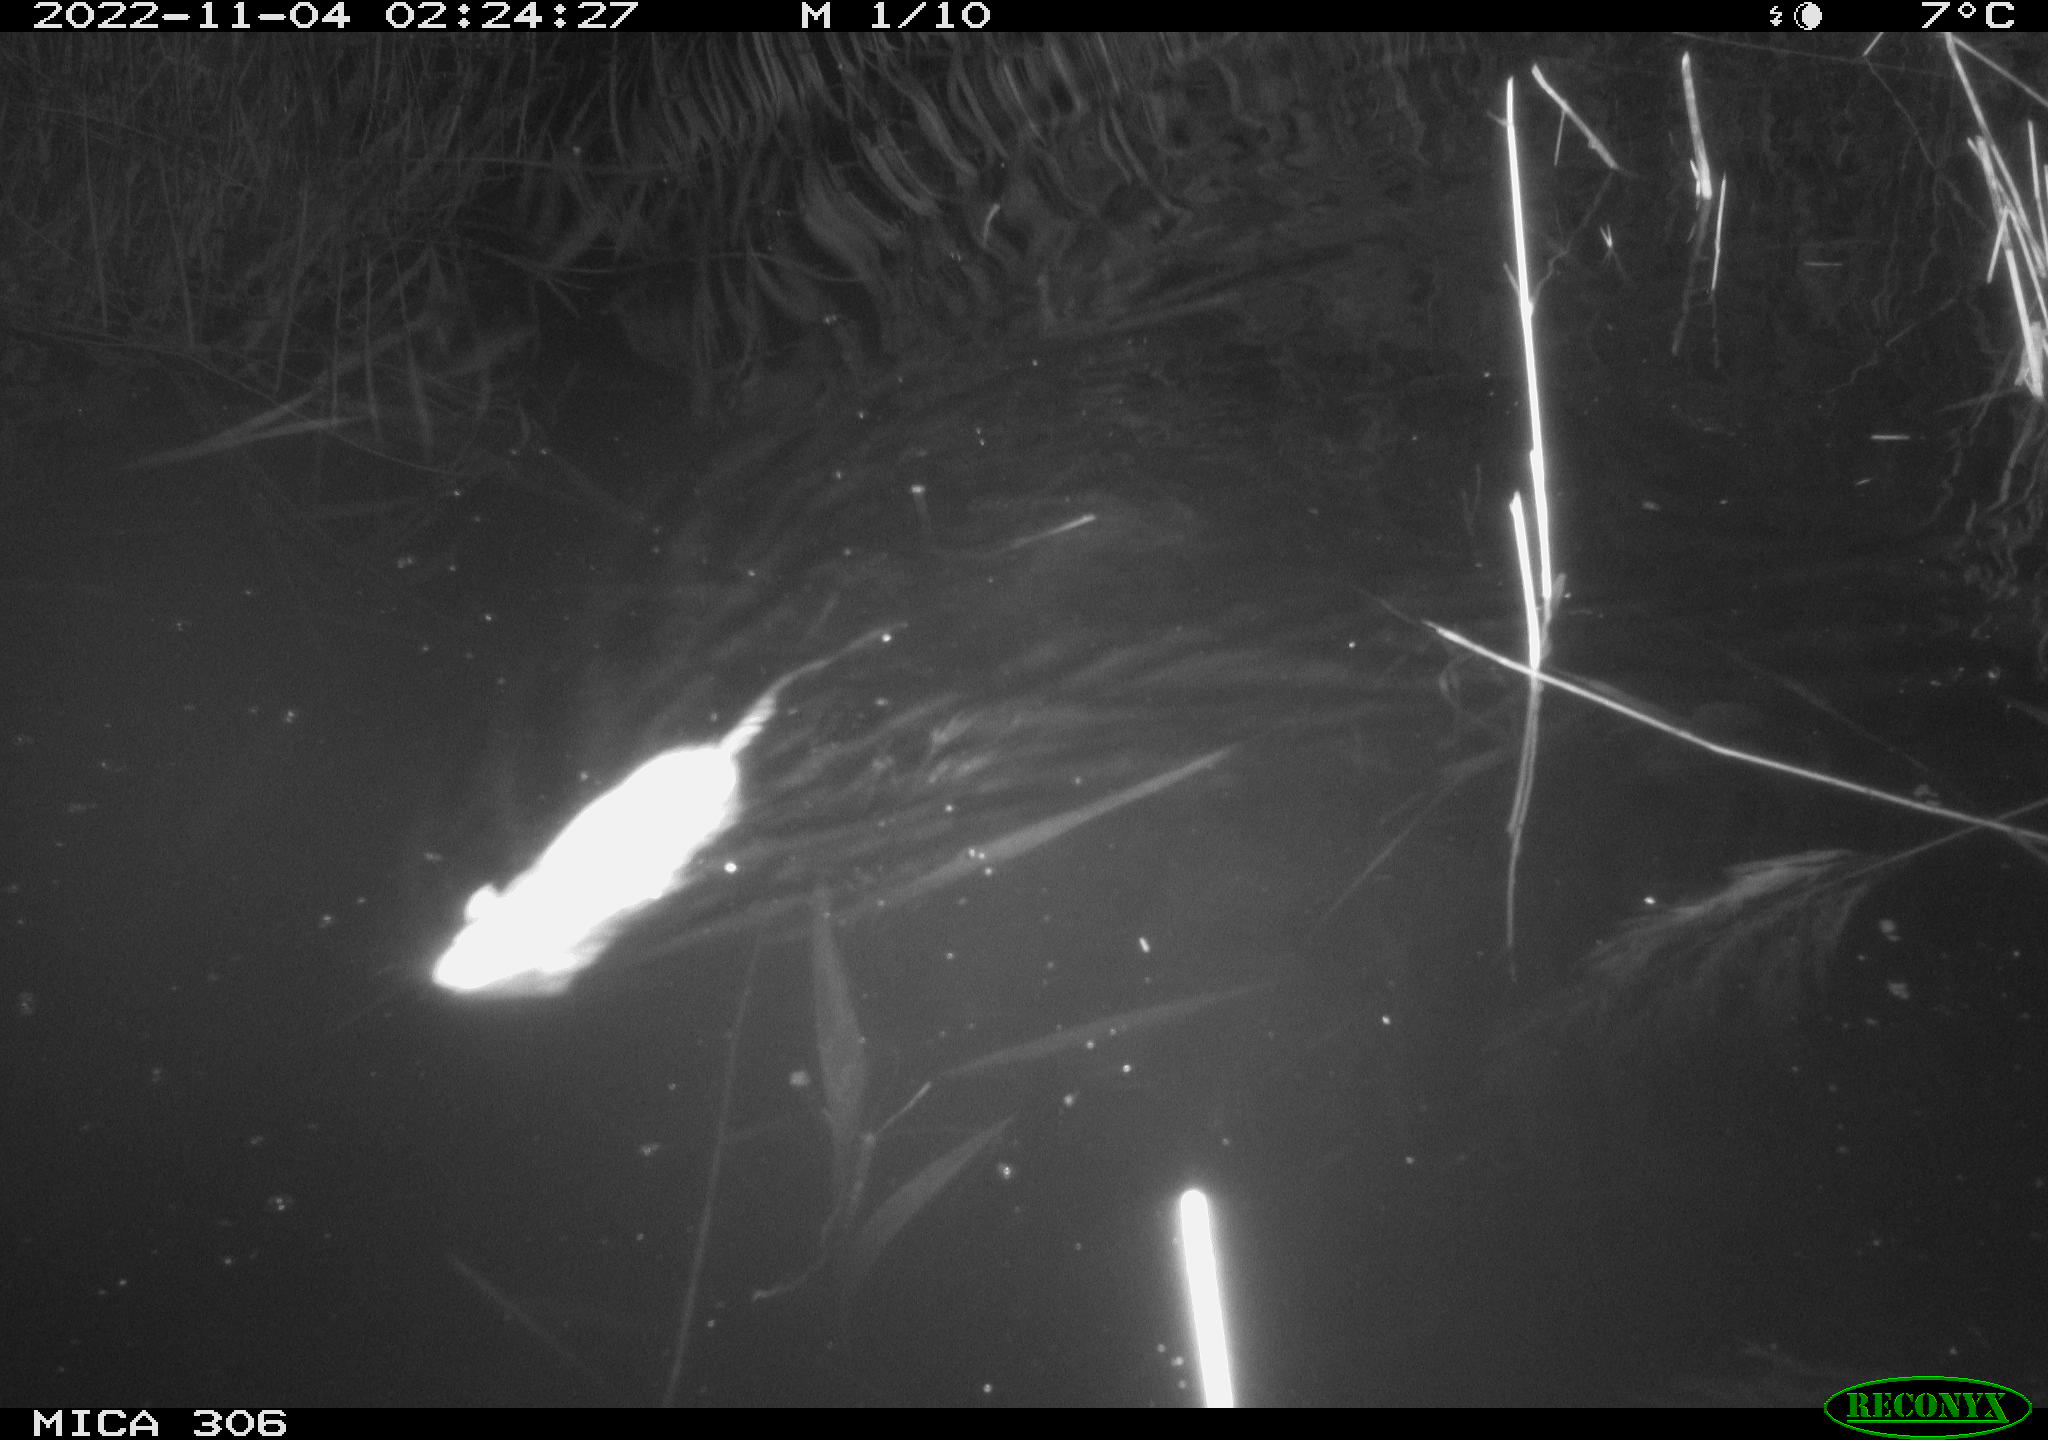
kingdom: Animalia
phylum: Chordata
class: Mammalia
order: Rodentia
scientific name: Rodentia
